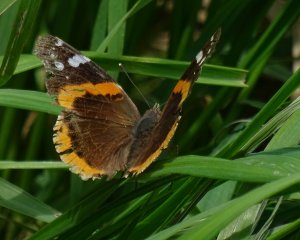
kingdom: Animalia
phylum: Arthropoda
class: Insecta
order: Lepidoptera
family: Nymphalidae
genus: Vanessa
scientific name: Vanessa atalanta
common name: Red Admiral
